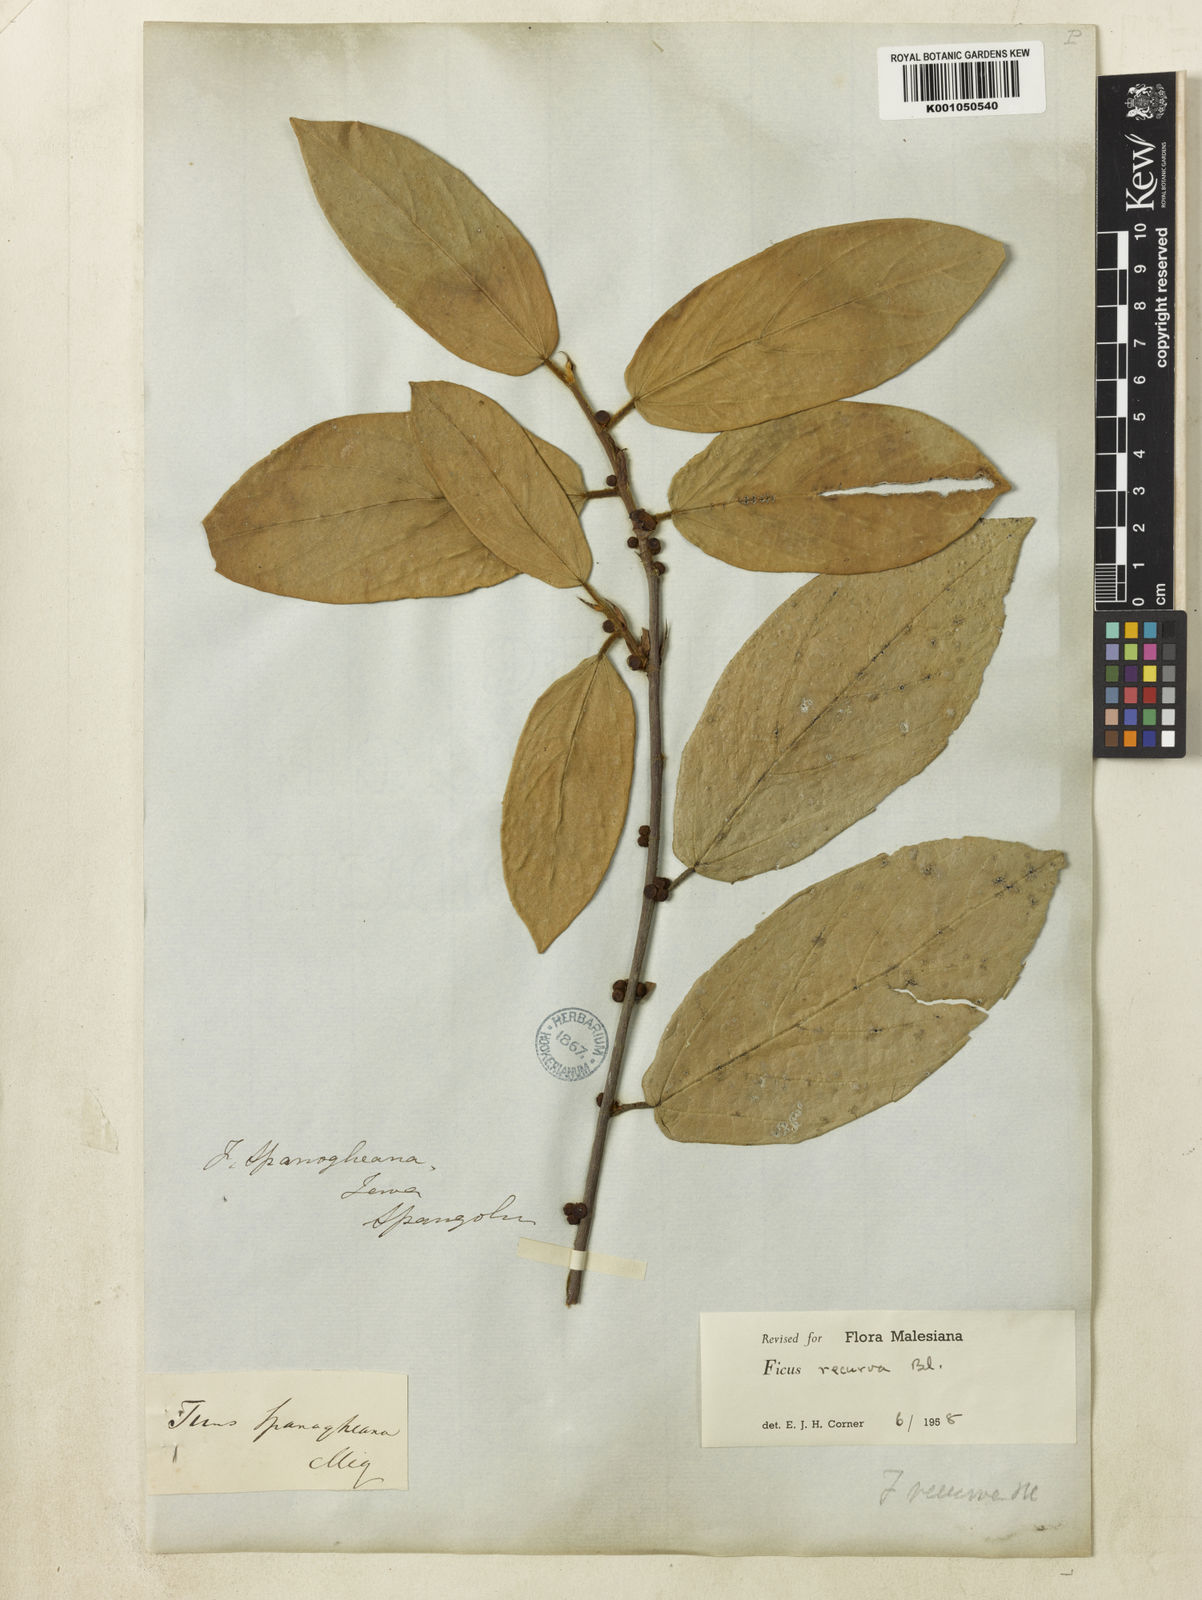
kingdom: Plantae
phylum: Tracheophyta
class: Magnoliopsida
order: Rosales
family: Moraceae
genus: Ficus
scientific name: Ficus recurva
